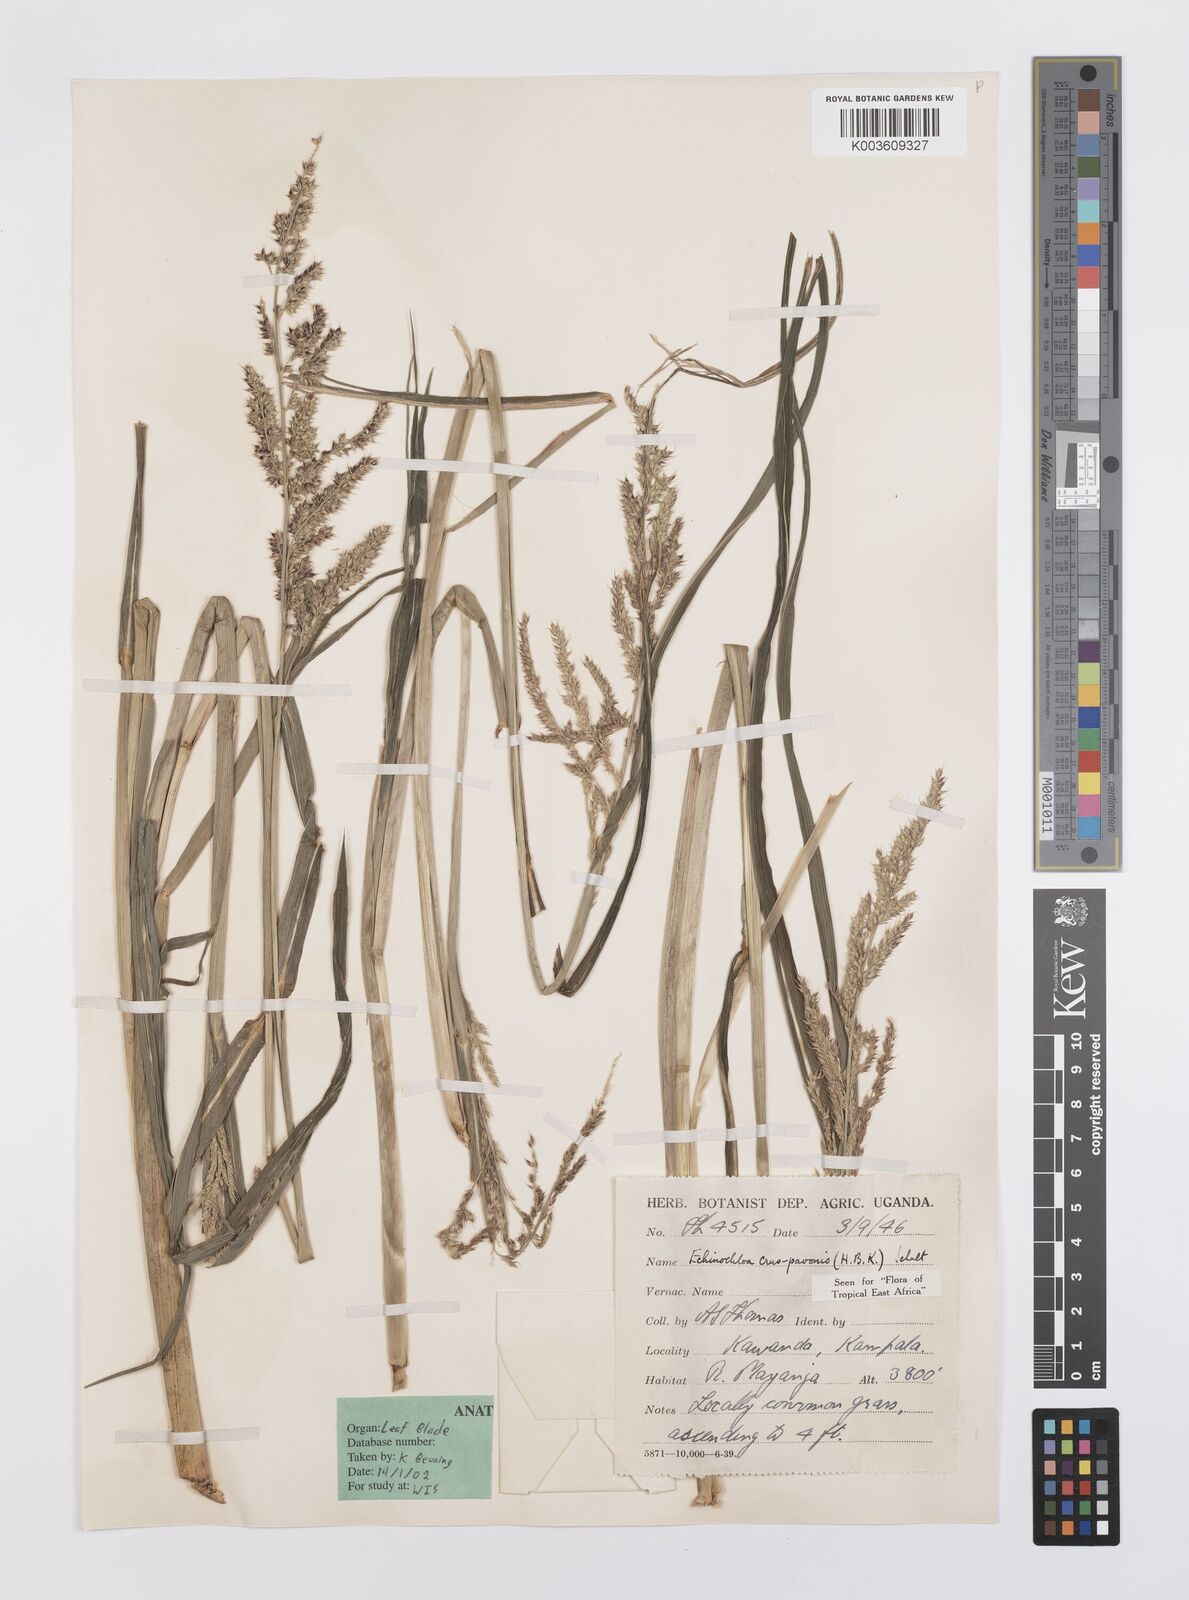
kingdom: Plantae
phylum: Tracheophyta
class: Liliopsida
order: Poales
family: Poaceae
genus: Echinochloa
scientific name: Echinochloa crus-pavonis
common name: Gulf cockspur grass
